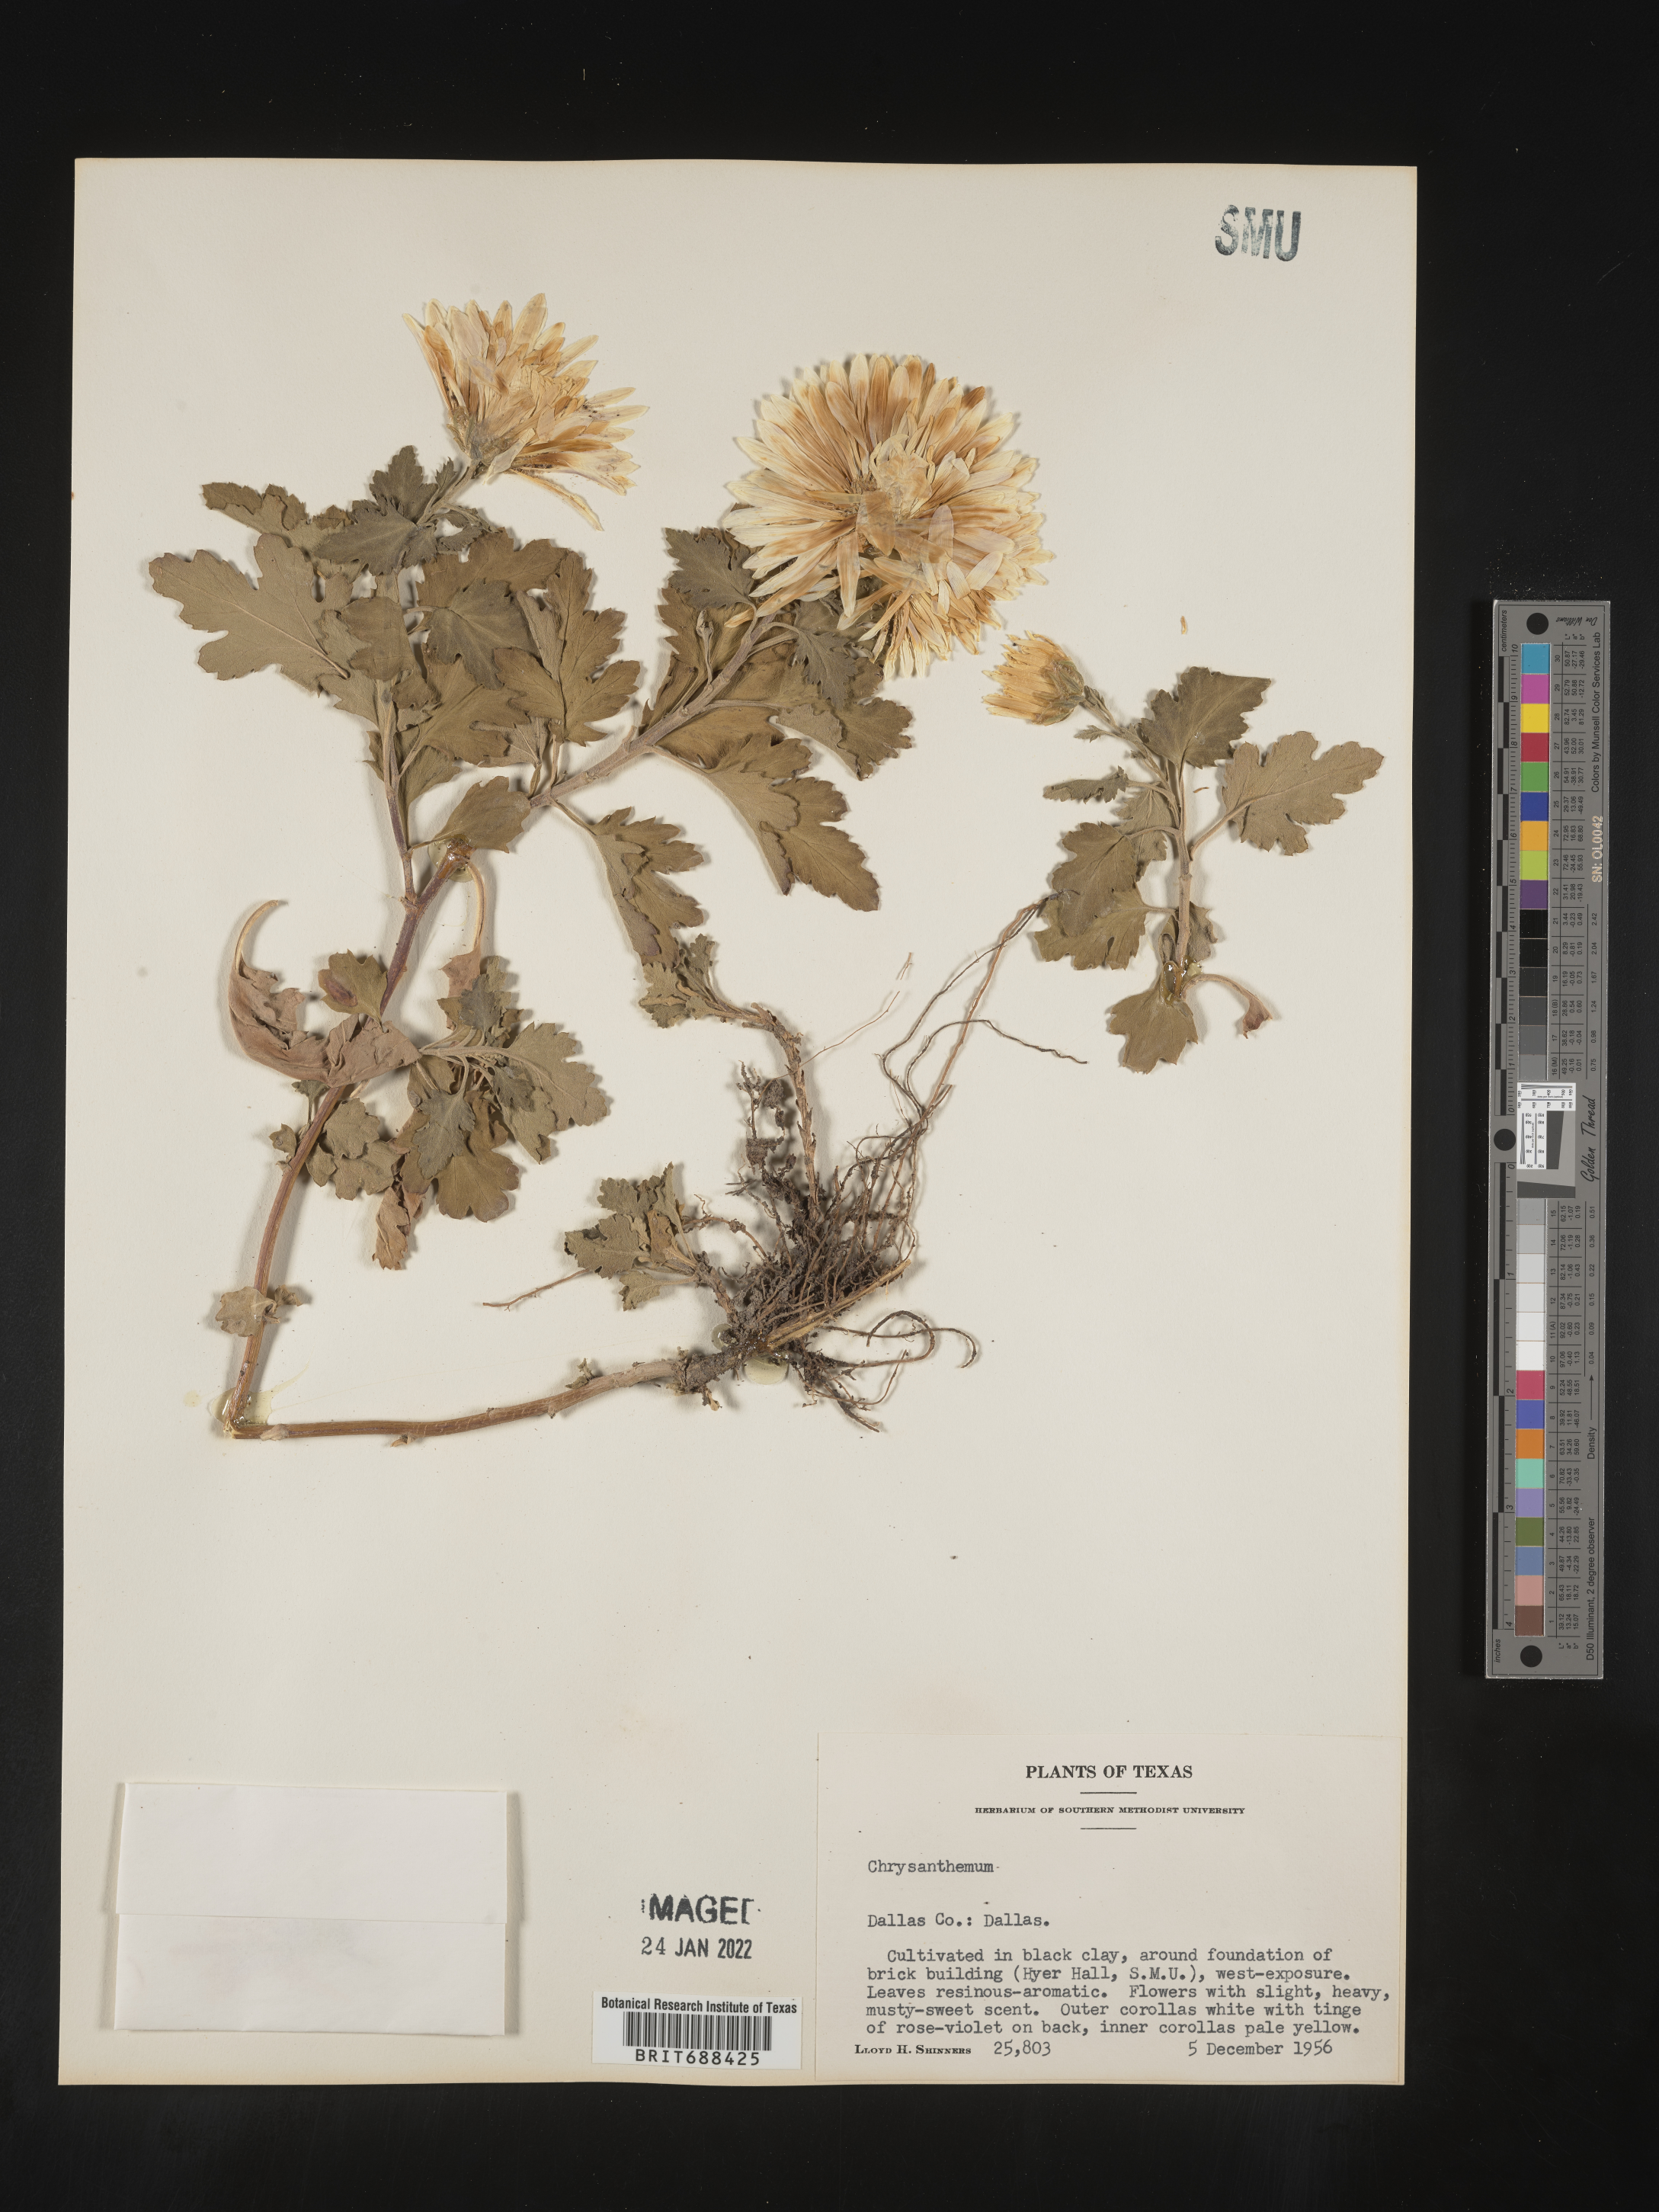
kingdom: Plantae
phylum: Tracheophyta
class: Magnoliopsida
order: Asterales
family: Asteraceae
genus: Chrysanthemum
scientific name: Chrysanthemum
